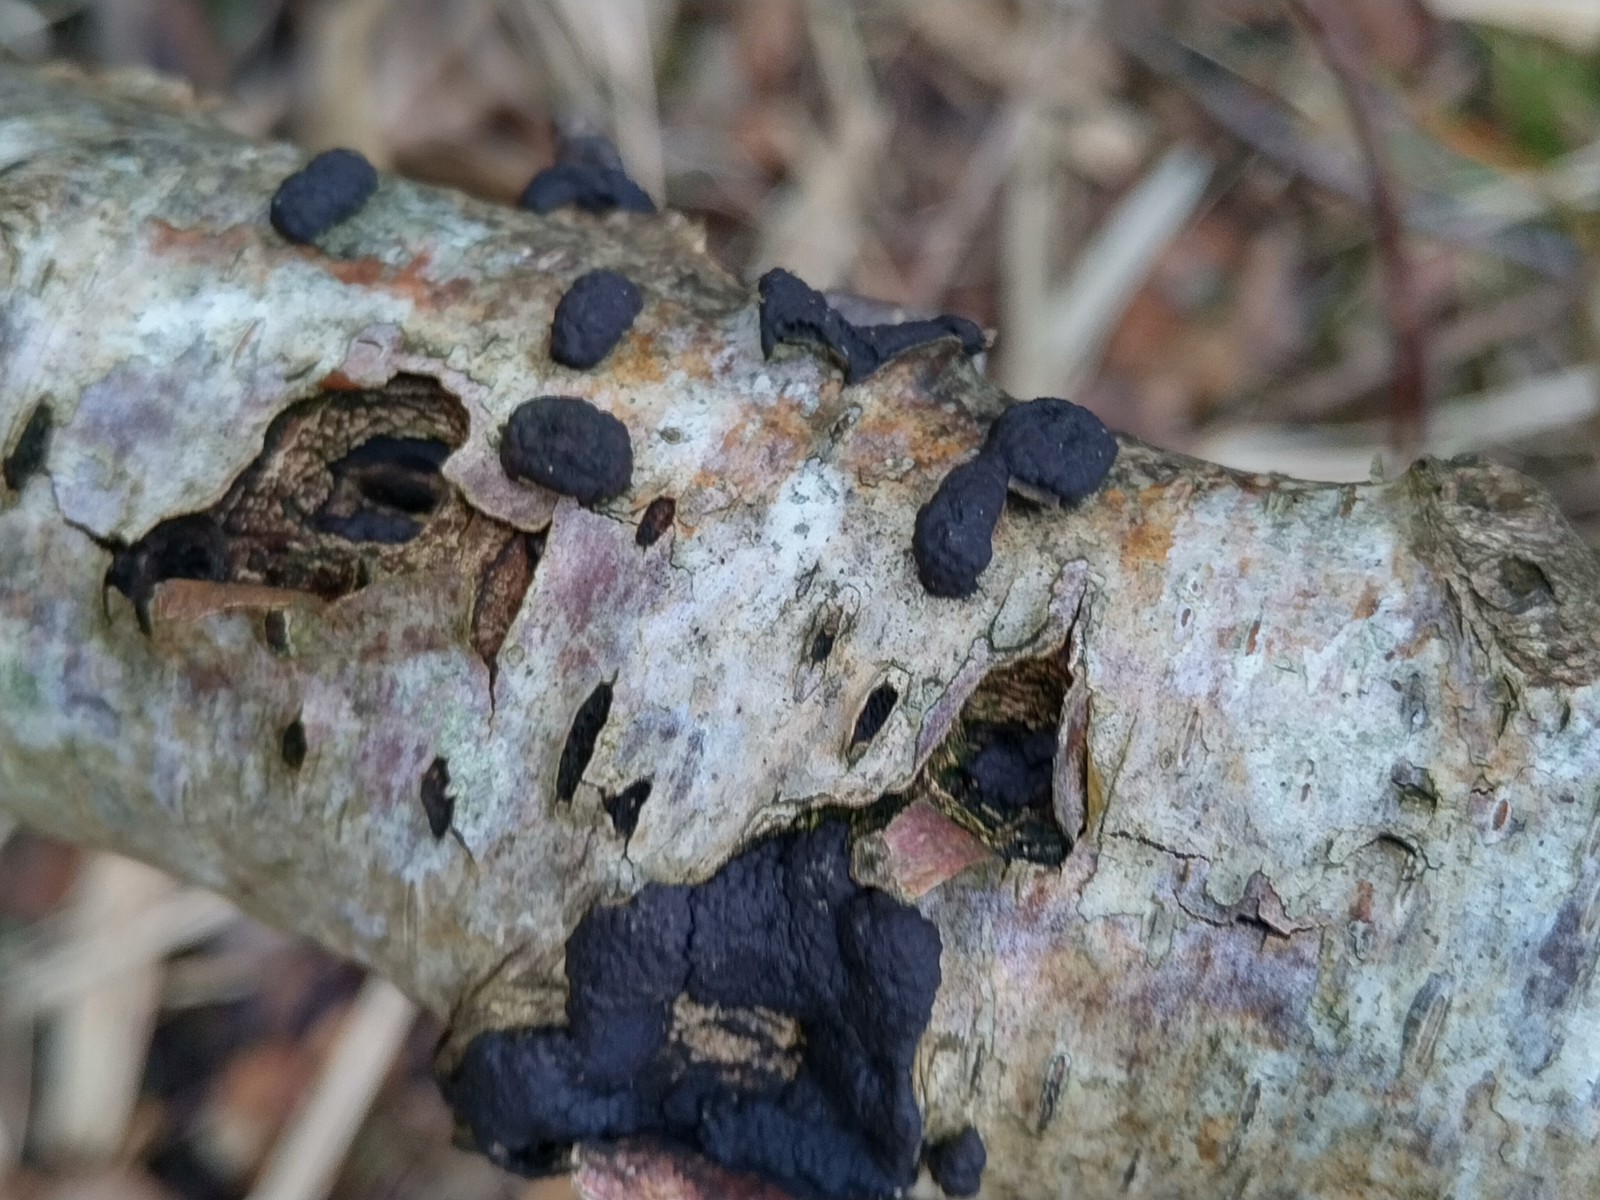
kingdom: Fungi
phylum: Ascomycota
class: Sordariomycetes
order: Xylariales
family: Hypoxylaceae
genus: Jackrogersella
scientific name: Jackrogersella multiformis
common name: foranderlig kulbær
